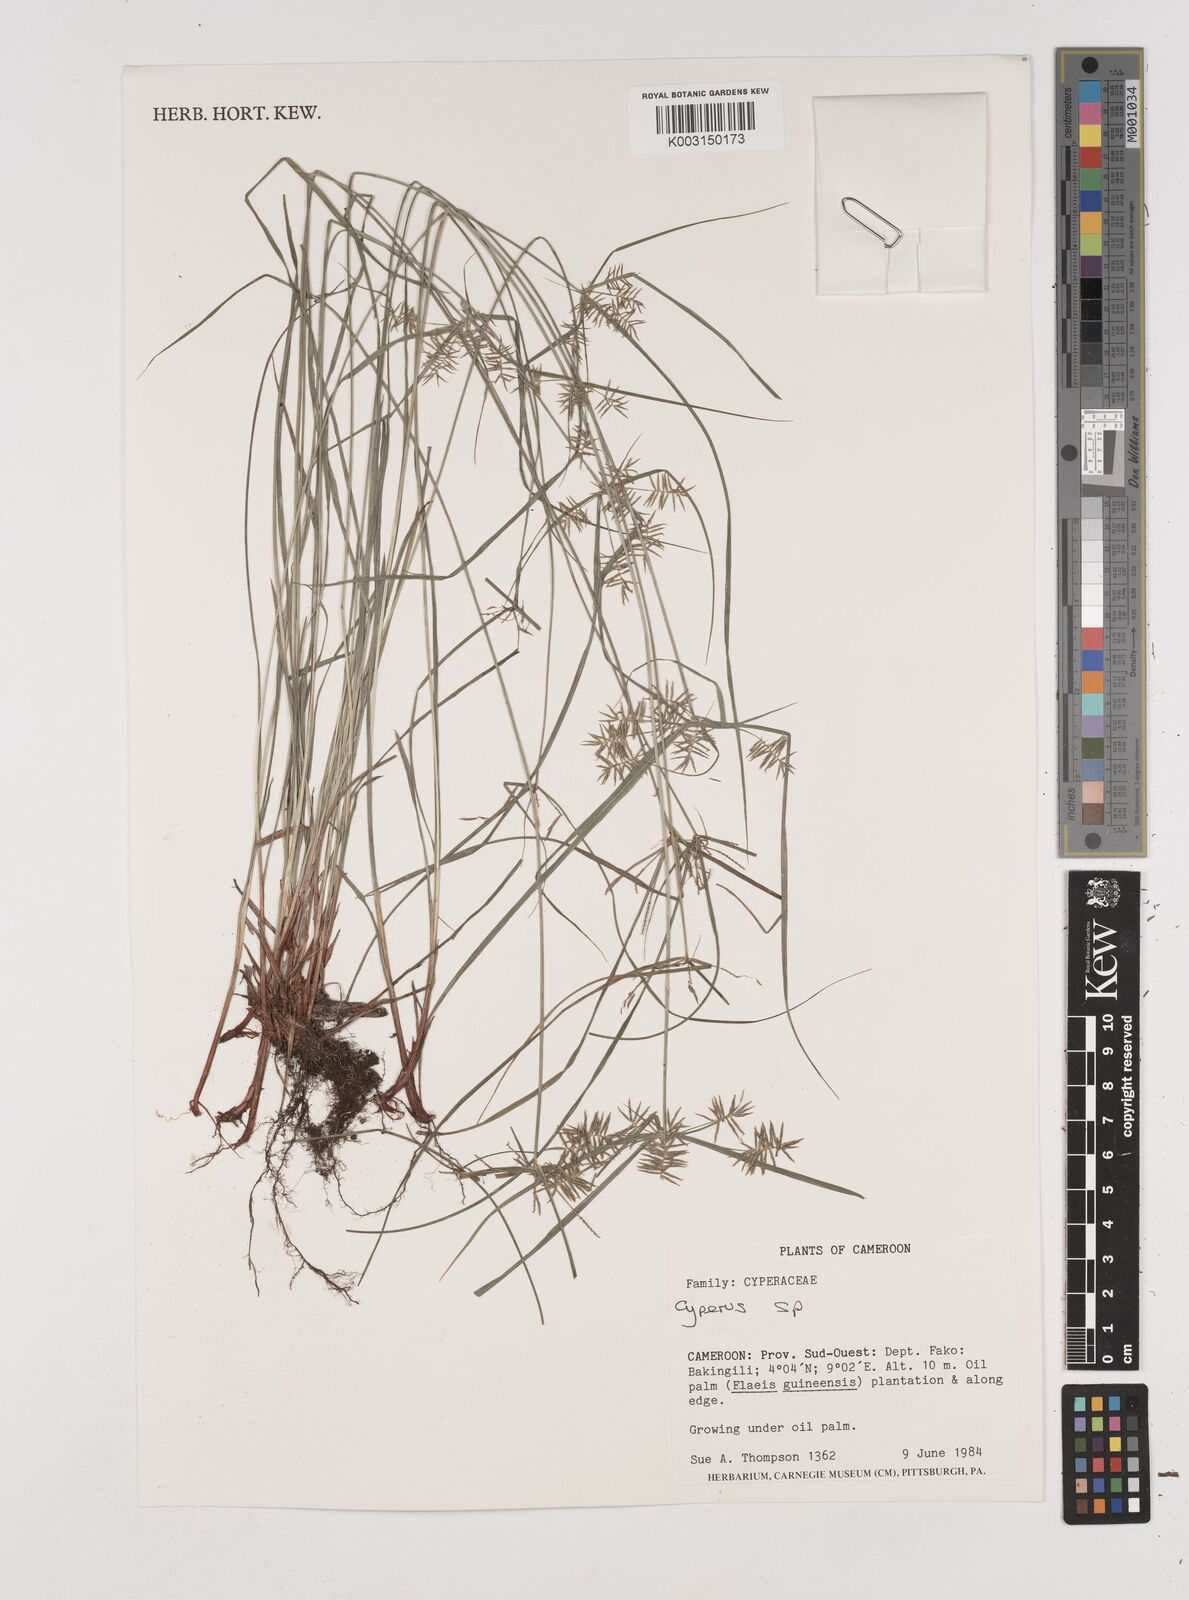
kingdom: Plantae
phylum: Tracheophyta
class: Liliopsida
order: Poales
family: Cyperaceae
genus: Cyperus
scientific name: Cyperus
